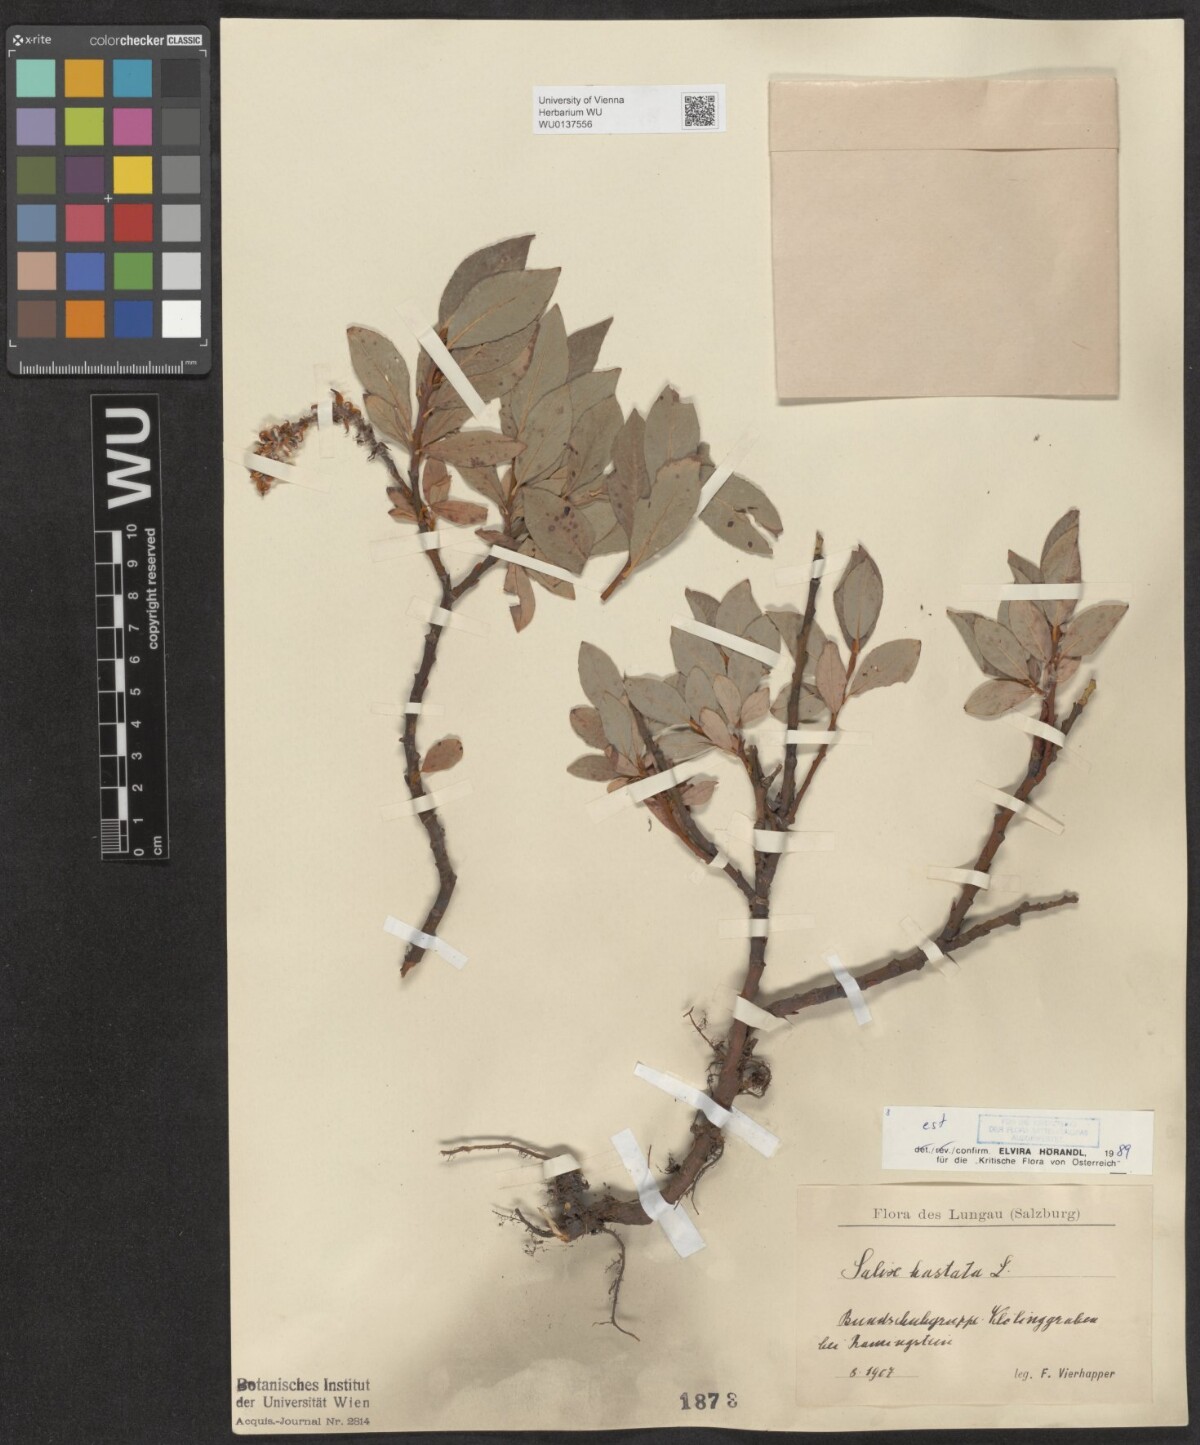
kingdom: Plantae
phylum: Tracheophyta
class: Magnoliopsida
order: Malpighiales
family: Salicaceae
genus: Salix
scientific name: Salix hastata
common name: Halberd willow
